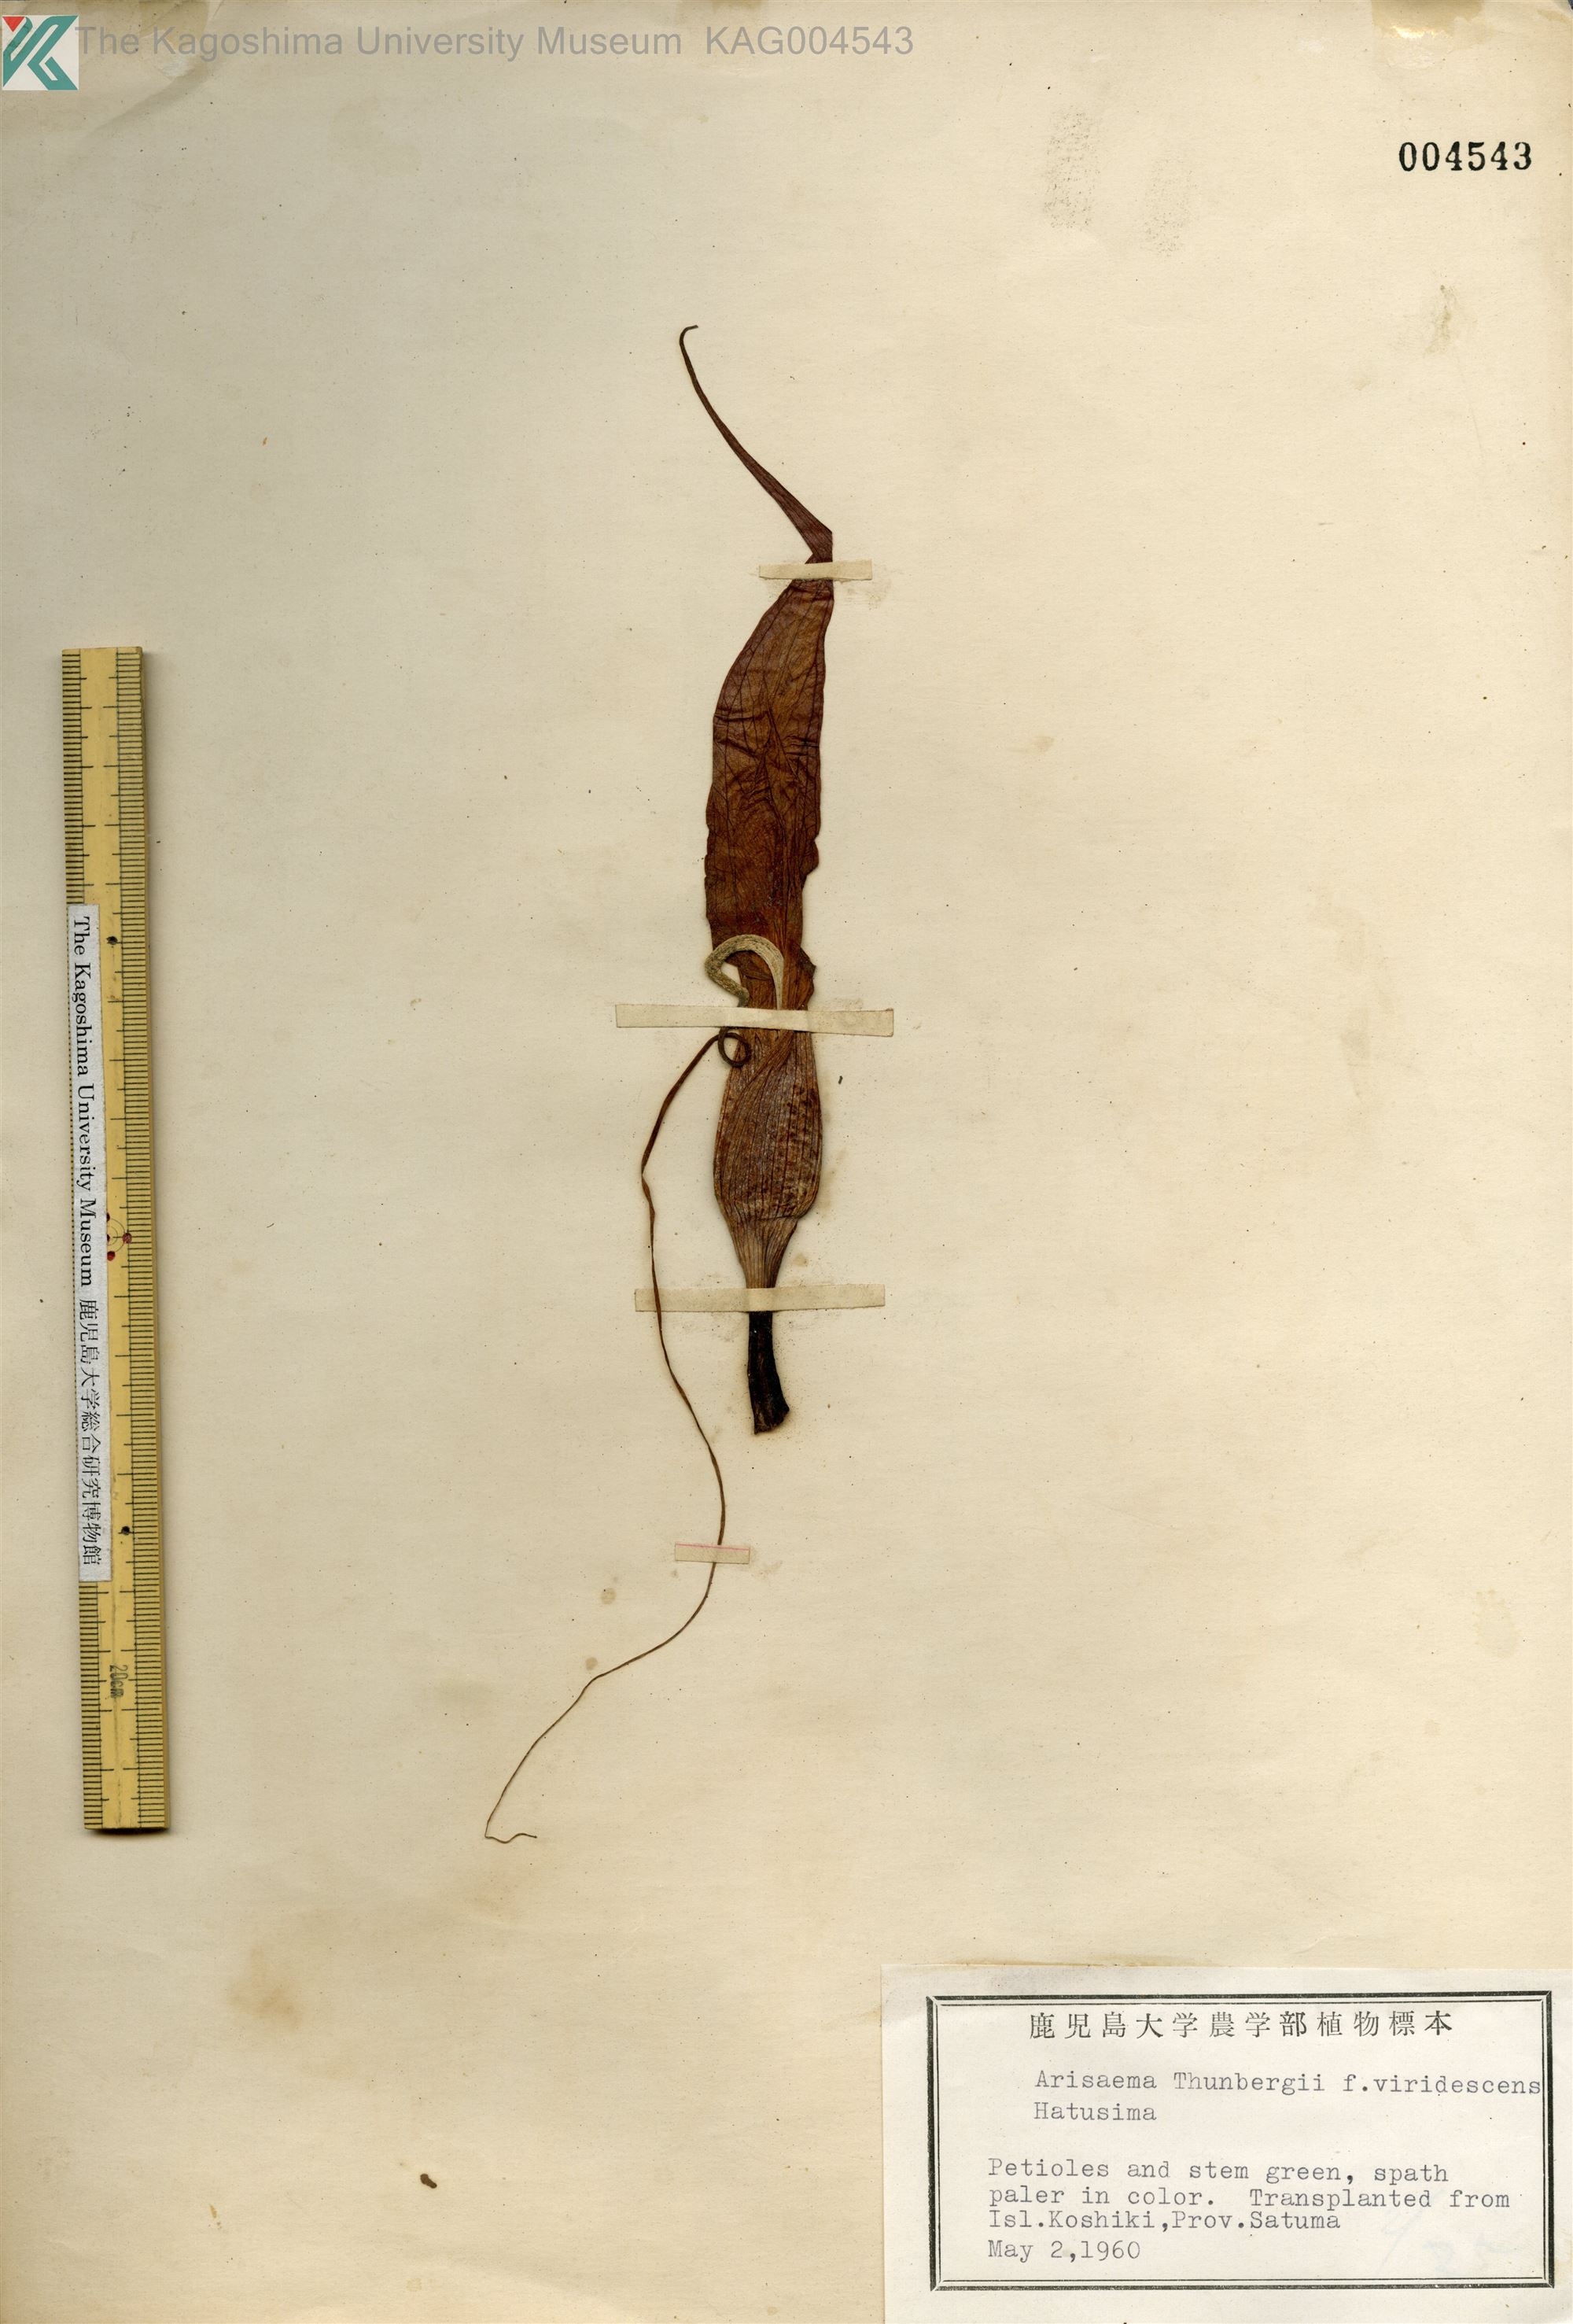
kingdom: Plantae
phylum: Tracheophyta
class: Liliopsida
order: Alismatales
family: Araceae
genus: Arisaema
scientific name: Arisaema thunbergii
